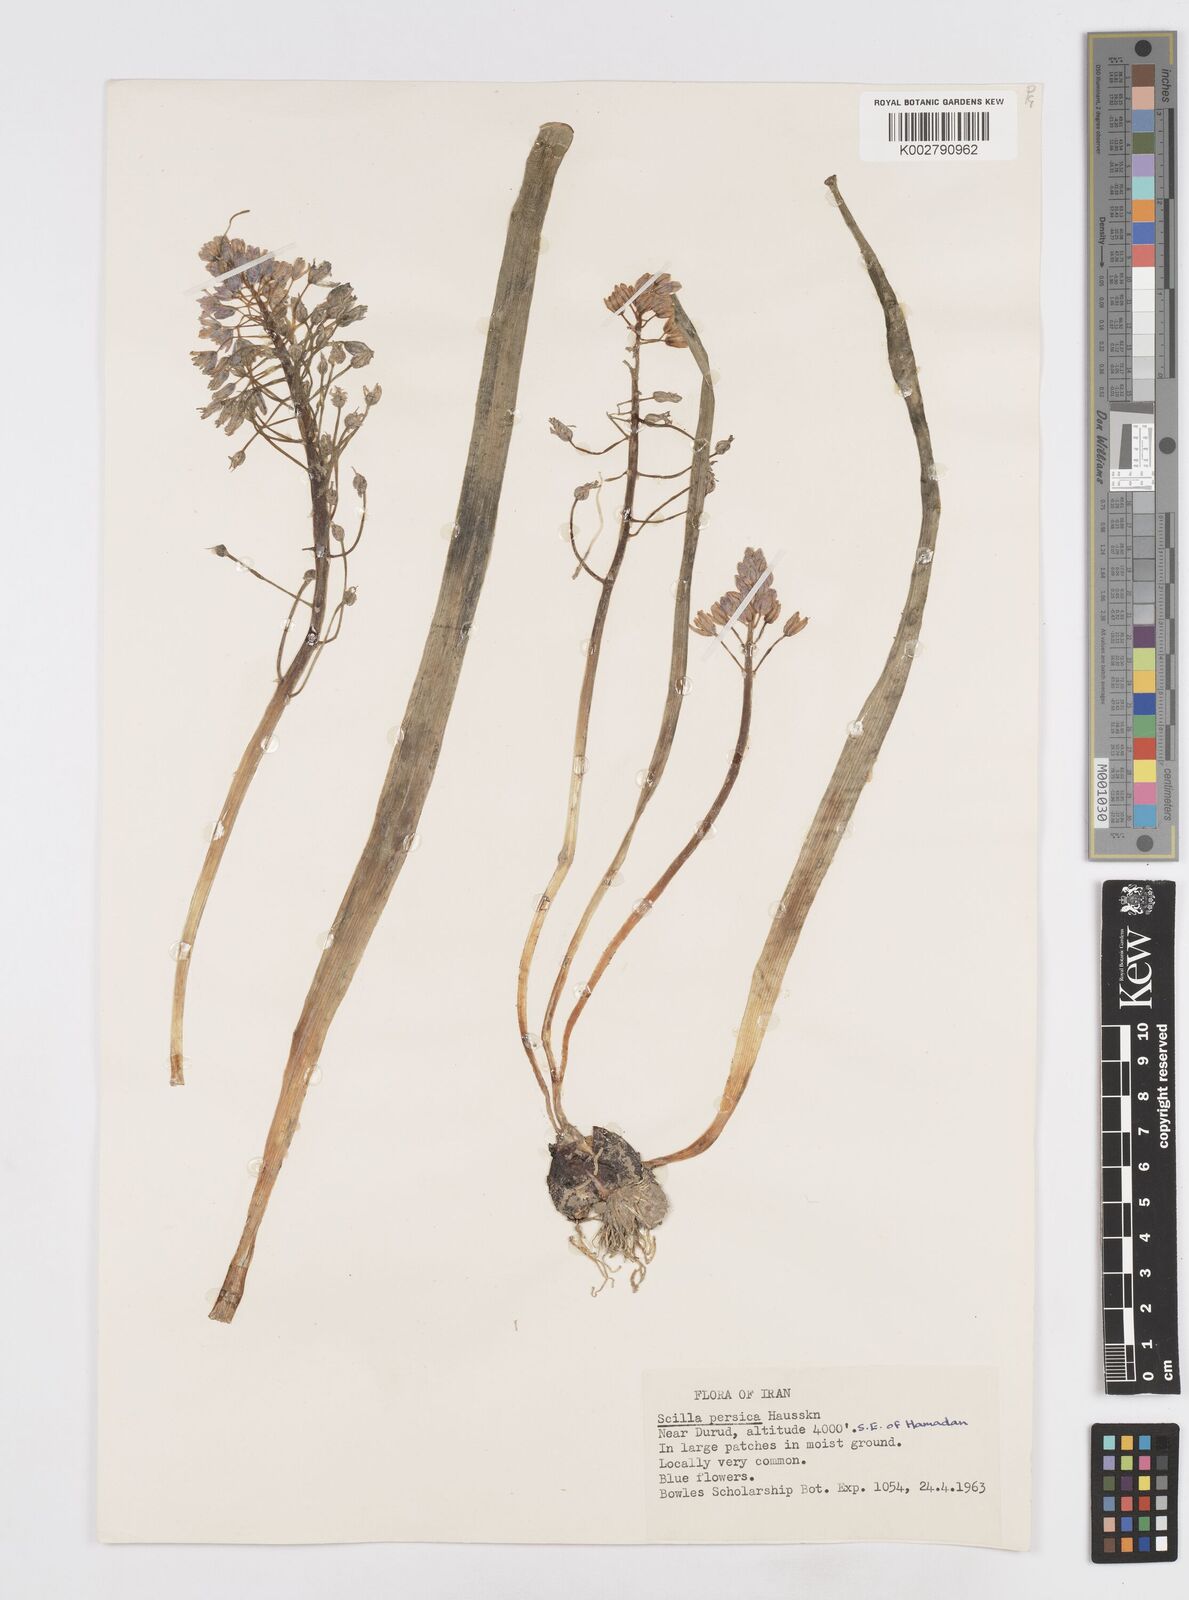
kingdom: Plantae
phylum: Tracheophyta
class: Liliopsida
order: Asparagales
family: Asparagaceae
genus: Zagrosia
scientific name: Zagrosia persica
